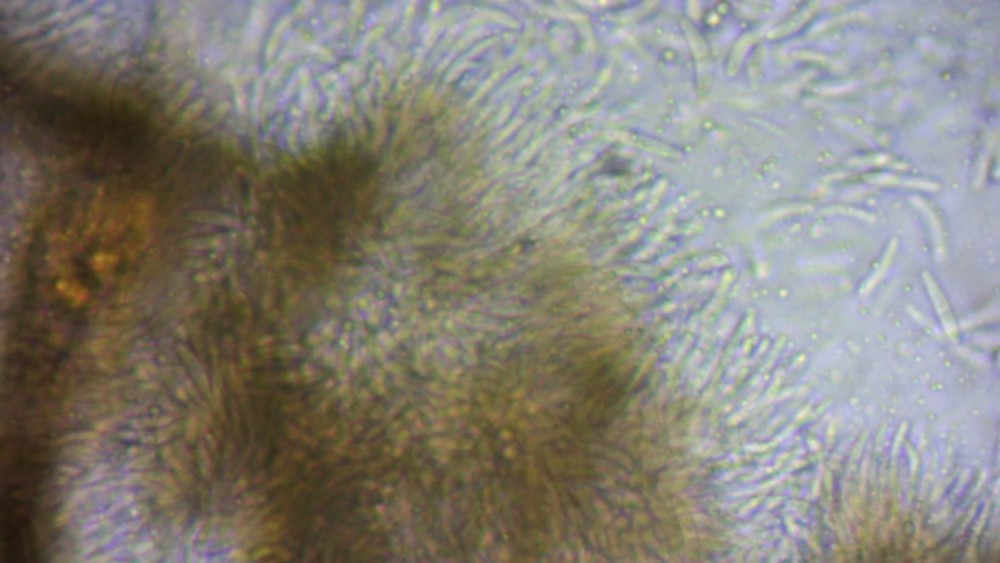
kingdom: Fungi
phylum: Ascomycota
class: Leotiomycetes
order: Helotiales
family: Godroniaceae
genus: Godronia
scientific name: Godronia callunigera
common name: hedelyng-urneskive
